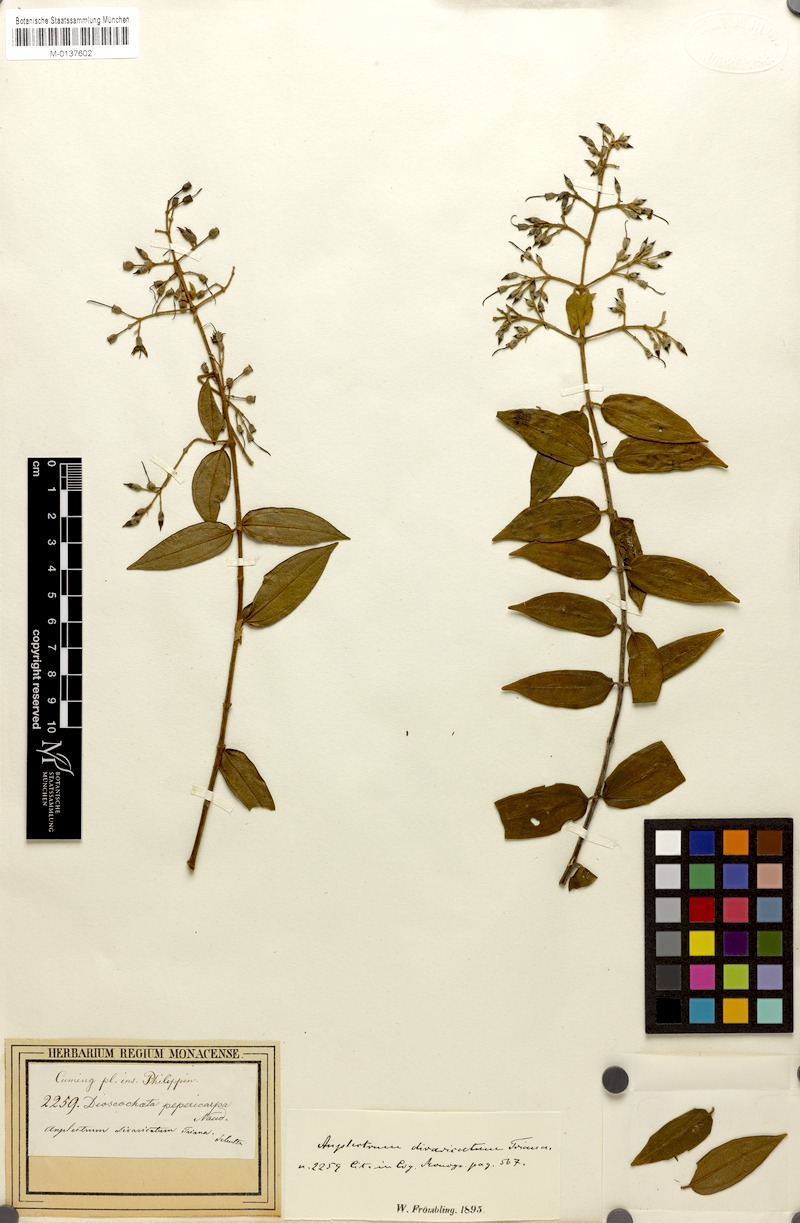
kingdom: Plantae
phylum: Tracheophyta
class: Magnoliopsida
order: Myrtales
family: Melastomataceae
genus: Diplectria
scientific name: Diplectria divaricata
